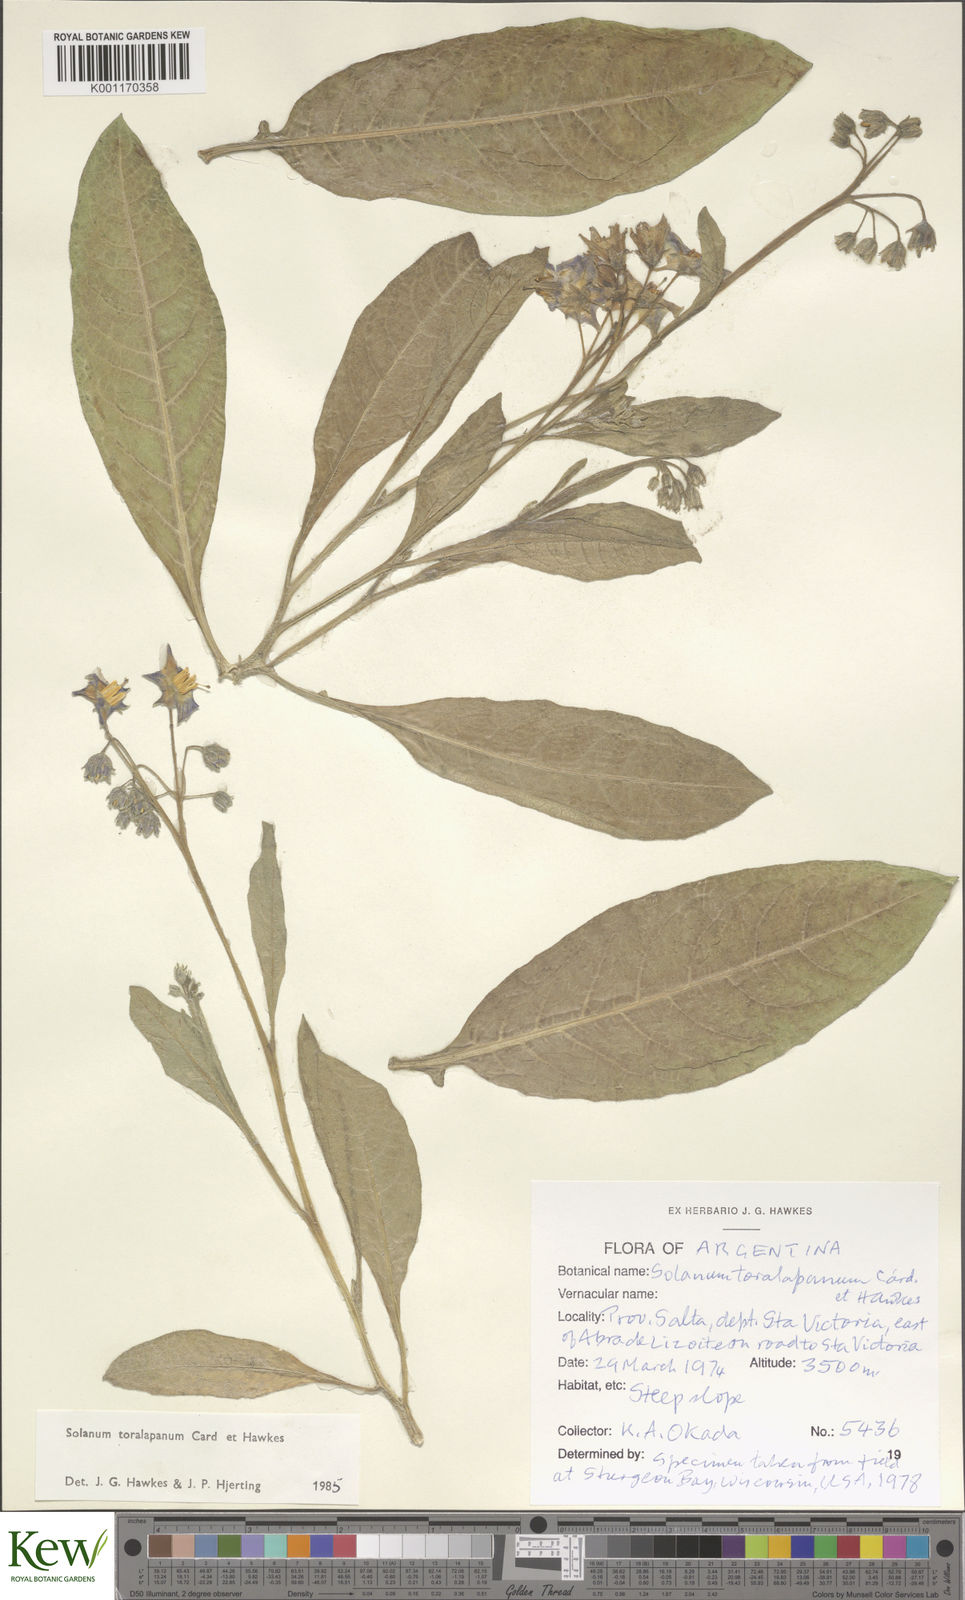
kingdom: Plantae
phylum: Tracheophyta
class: Magnoliopsida
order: Solanales
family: Solanaceae
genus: Solanum
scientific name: Solanum
